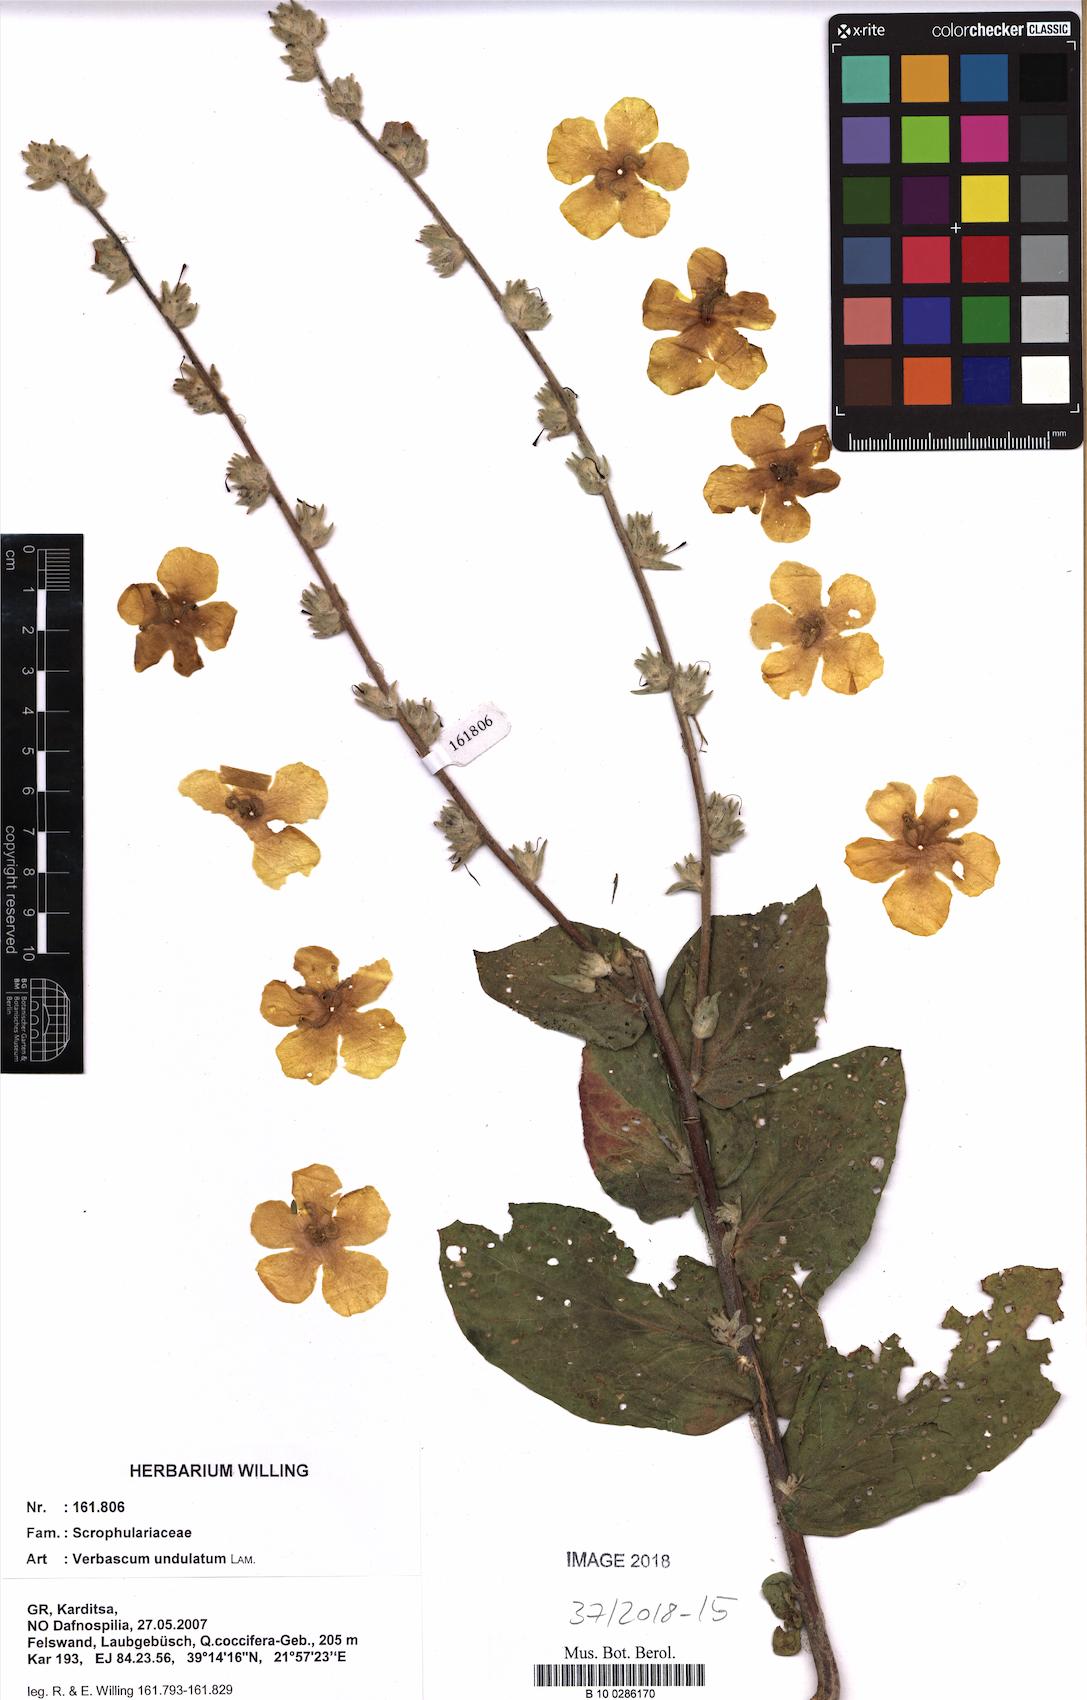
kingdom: Plantae
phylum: Tracheophyta
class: Magnoliopsida
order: Lamiales
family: Scrophulariaceae
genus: Verbascum
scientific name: Verbascum undulatum
